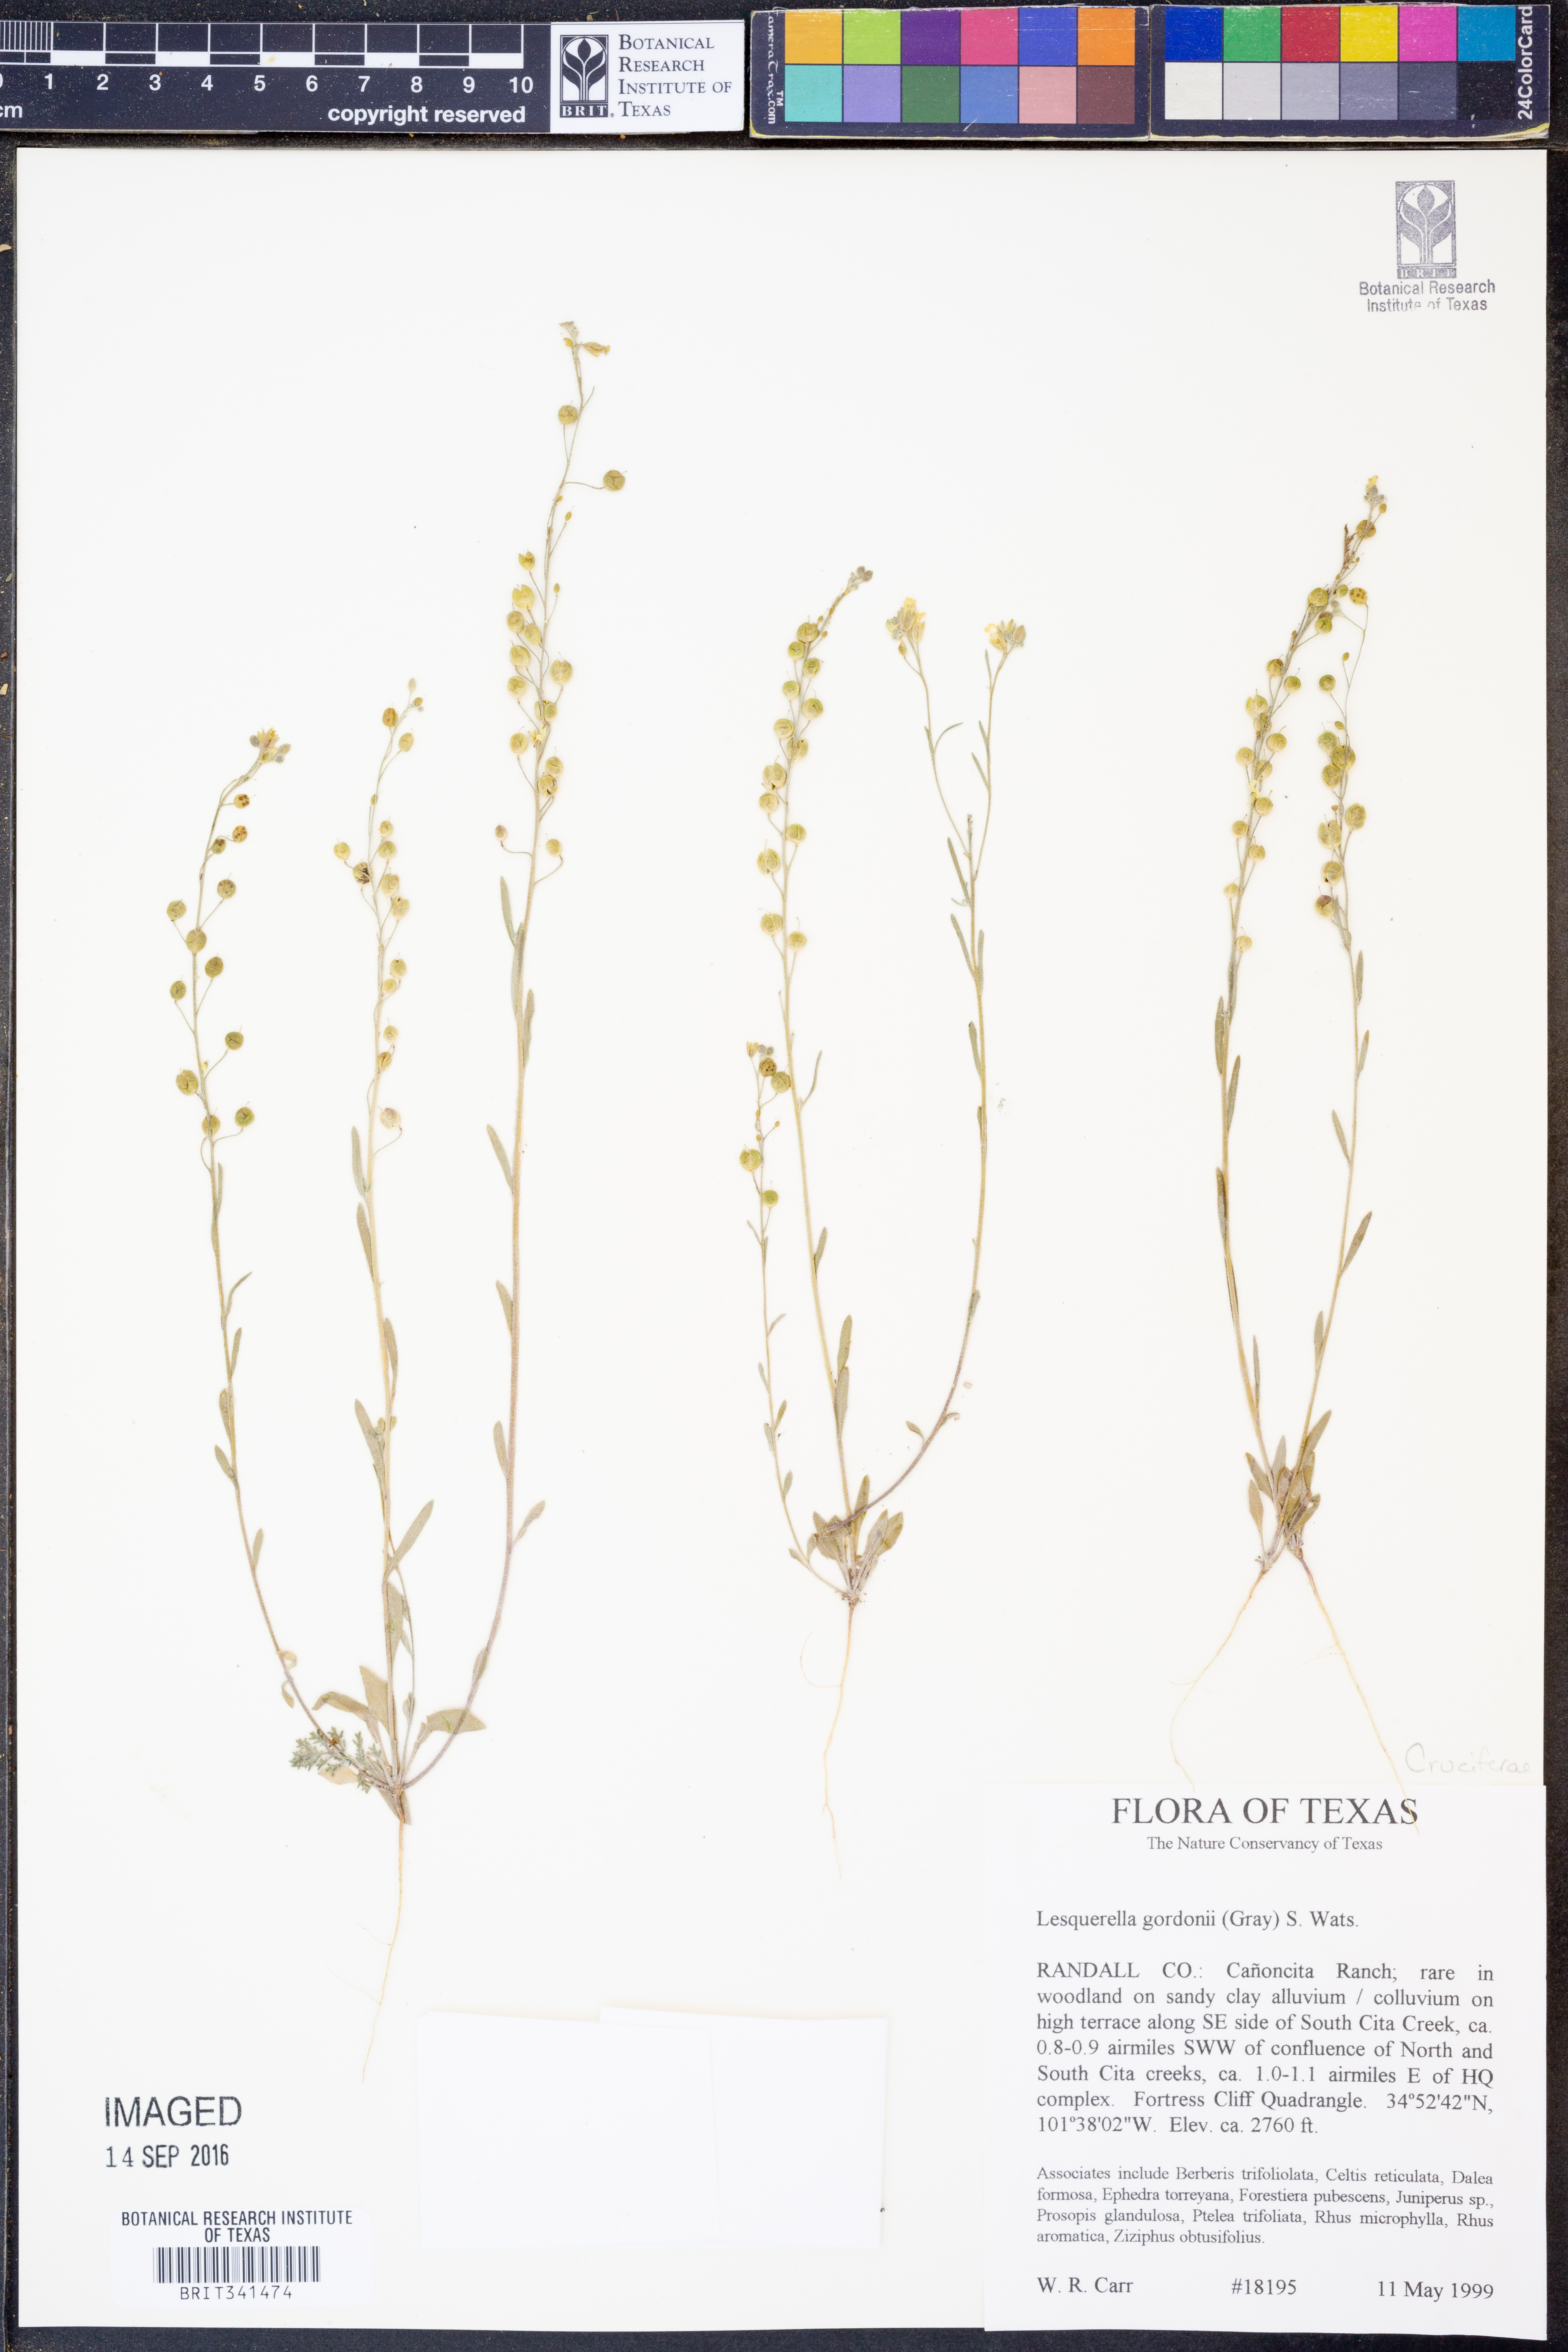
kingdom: Plantae
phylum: Tracheophyta
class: Magnoliopsida
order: Brassicales
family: Brassicaceae
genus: Physaria
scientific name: Physaria gordonii
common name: Gordon's bladderpod
